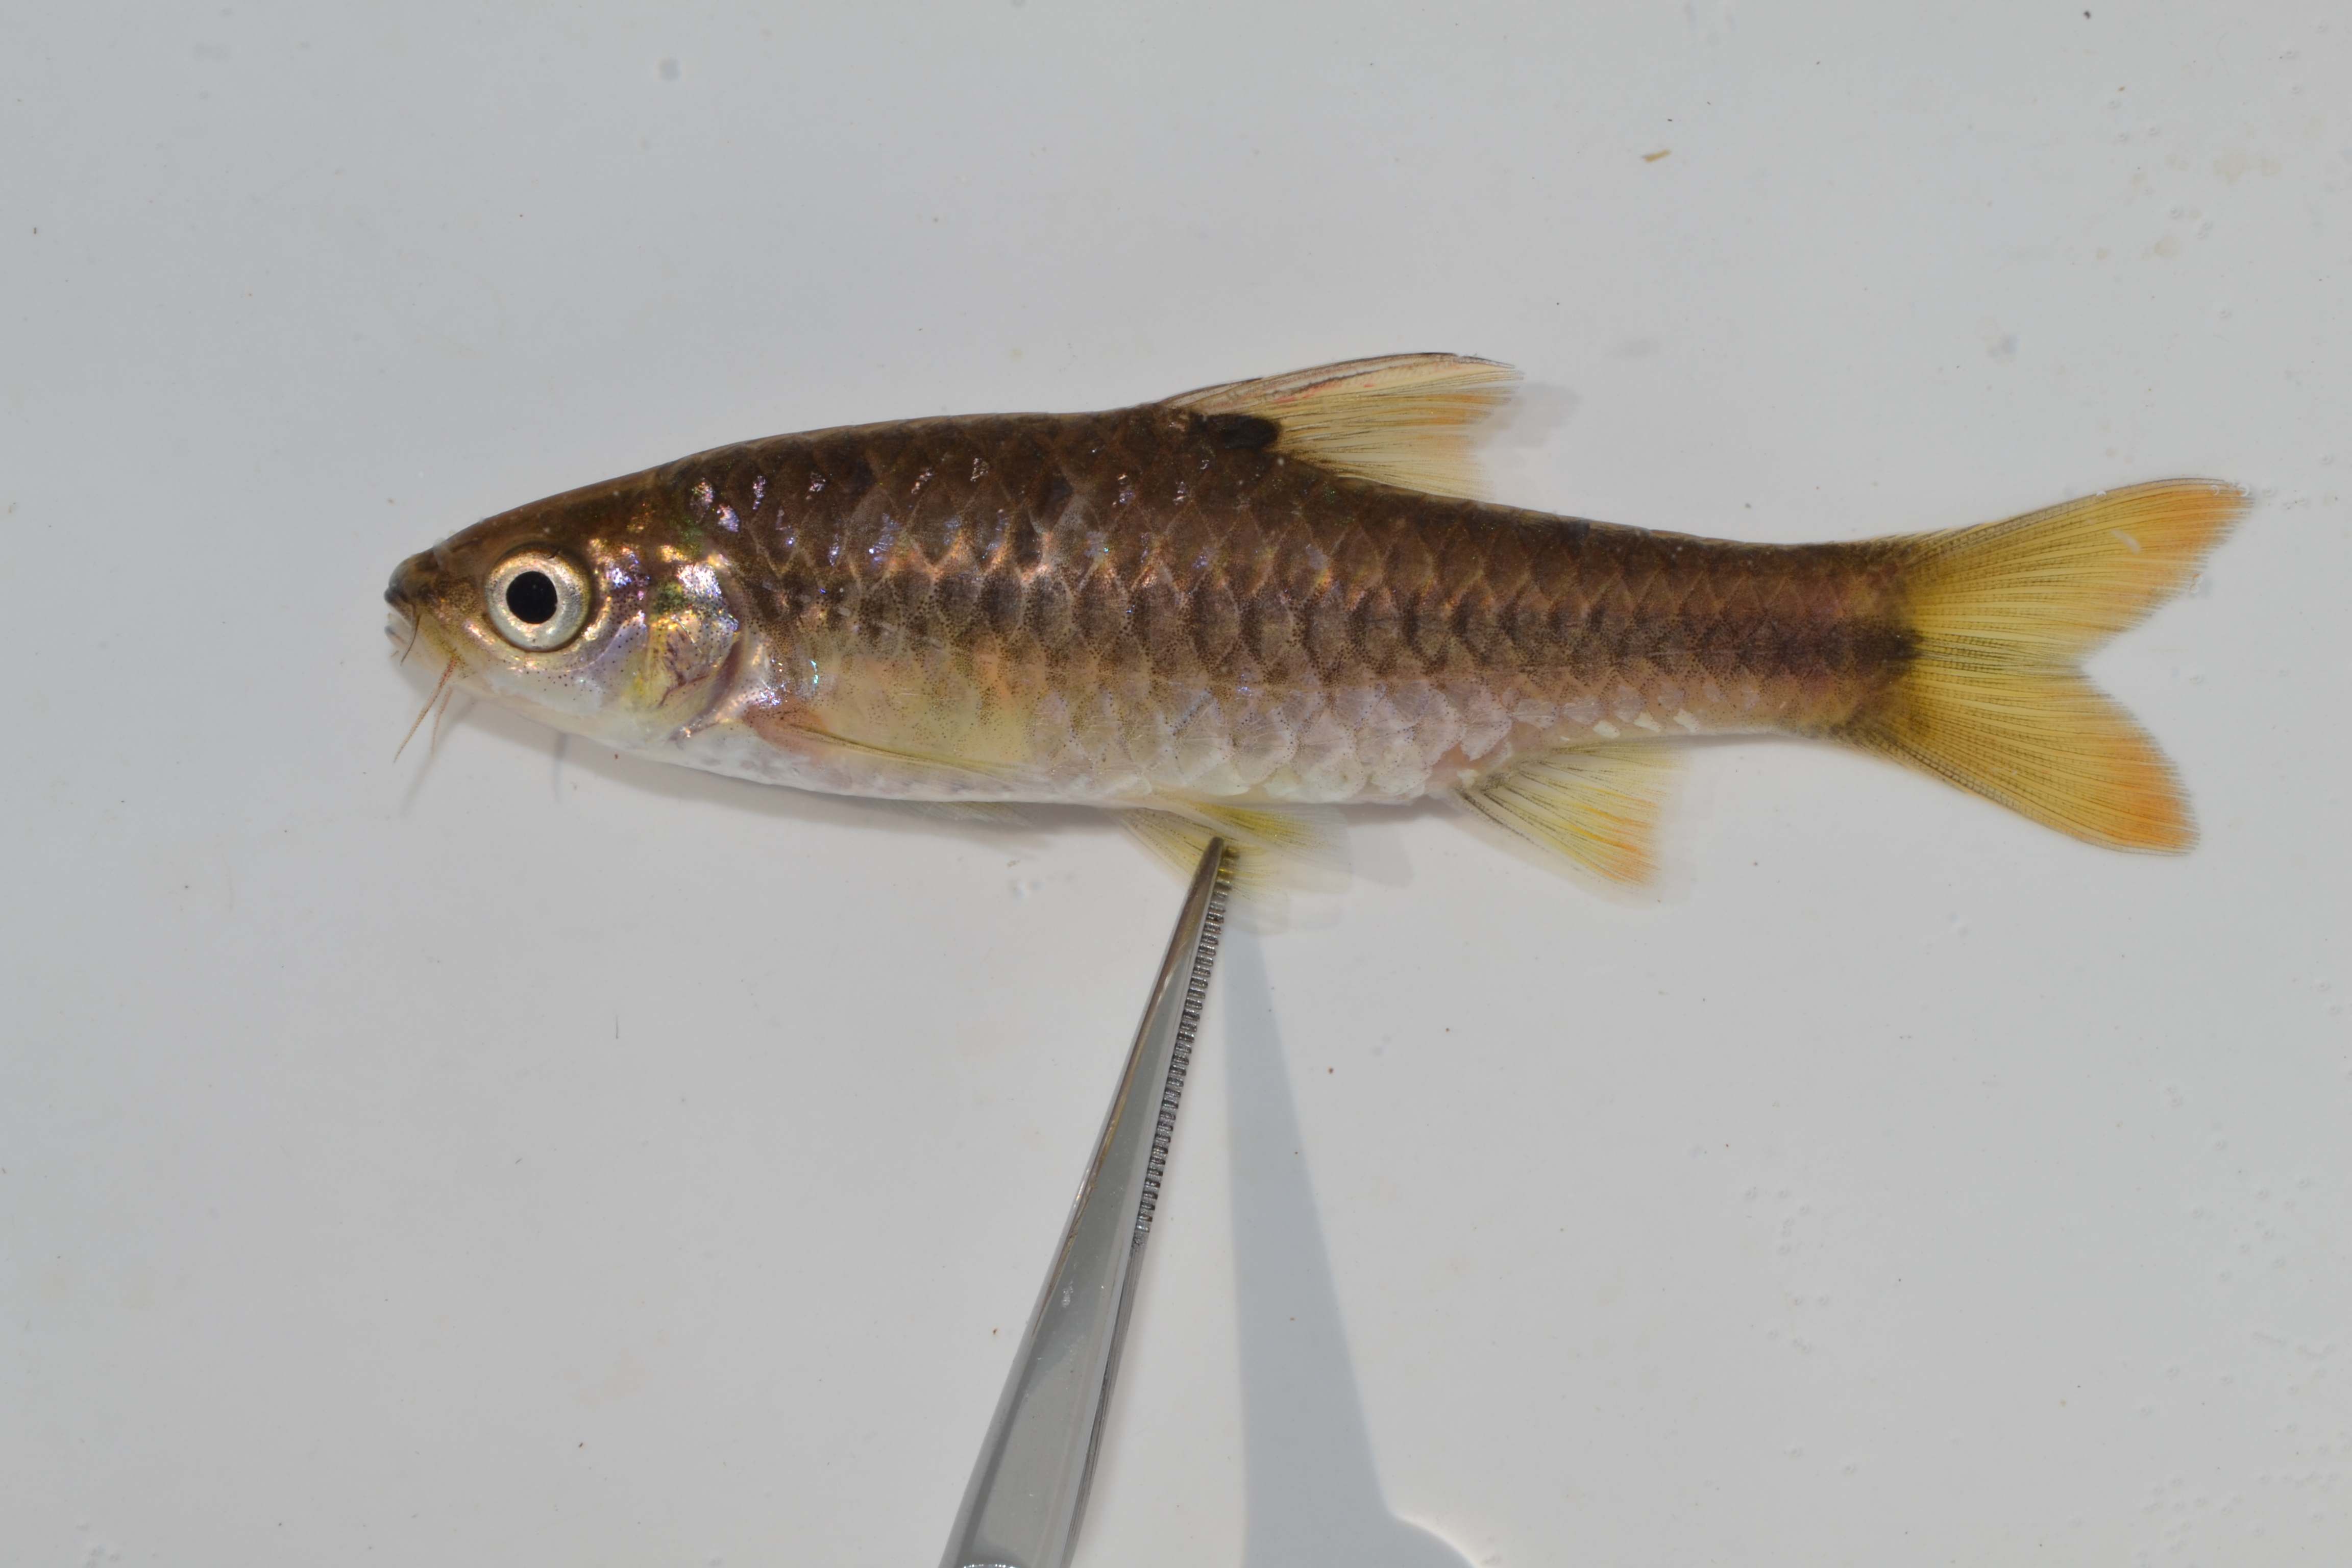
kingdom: Animalia
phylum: Chordata
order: Cypriniformes
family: Cyprinidae
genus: Enteromius
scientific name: Enteromius argenteus
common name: Rosefin barb
